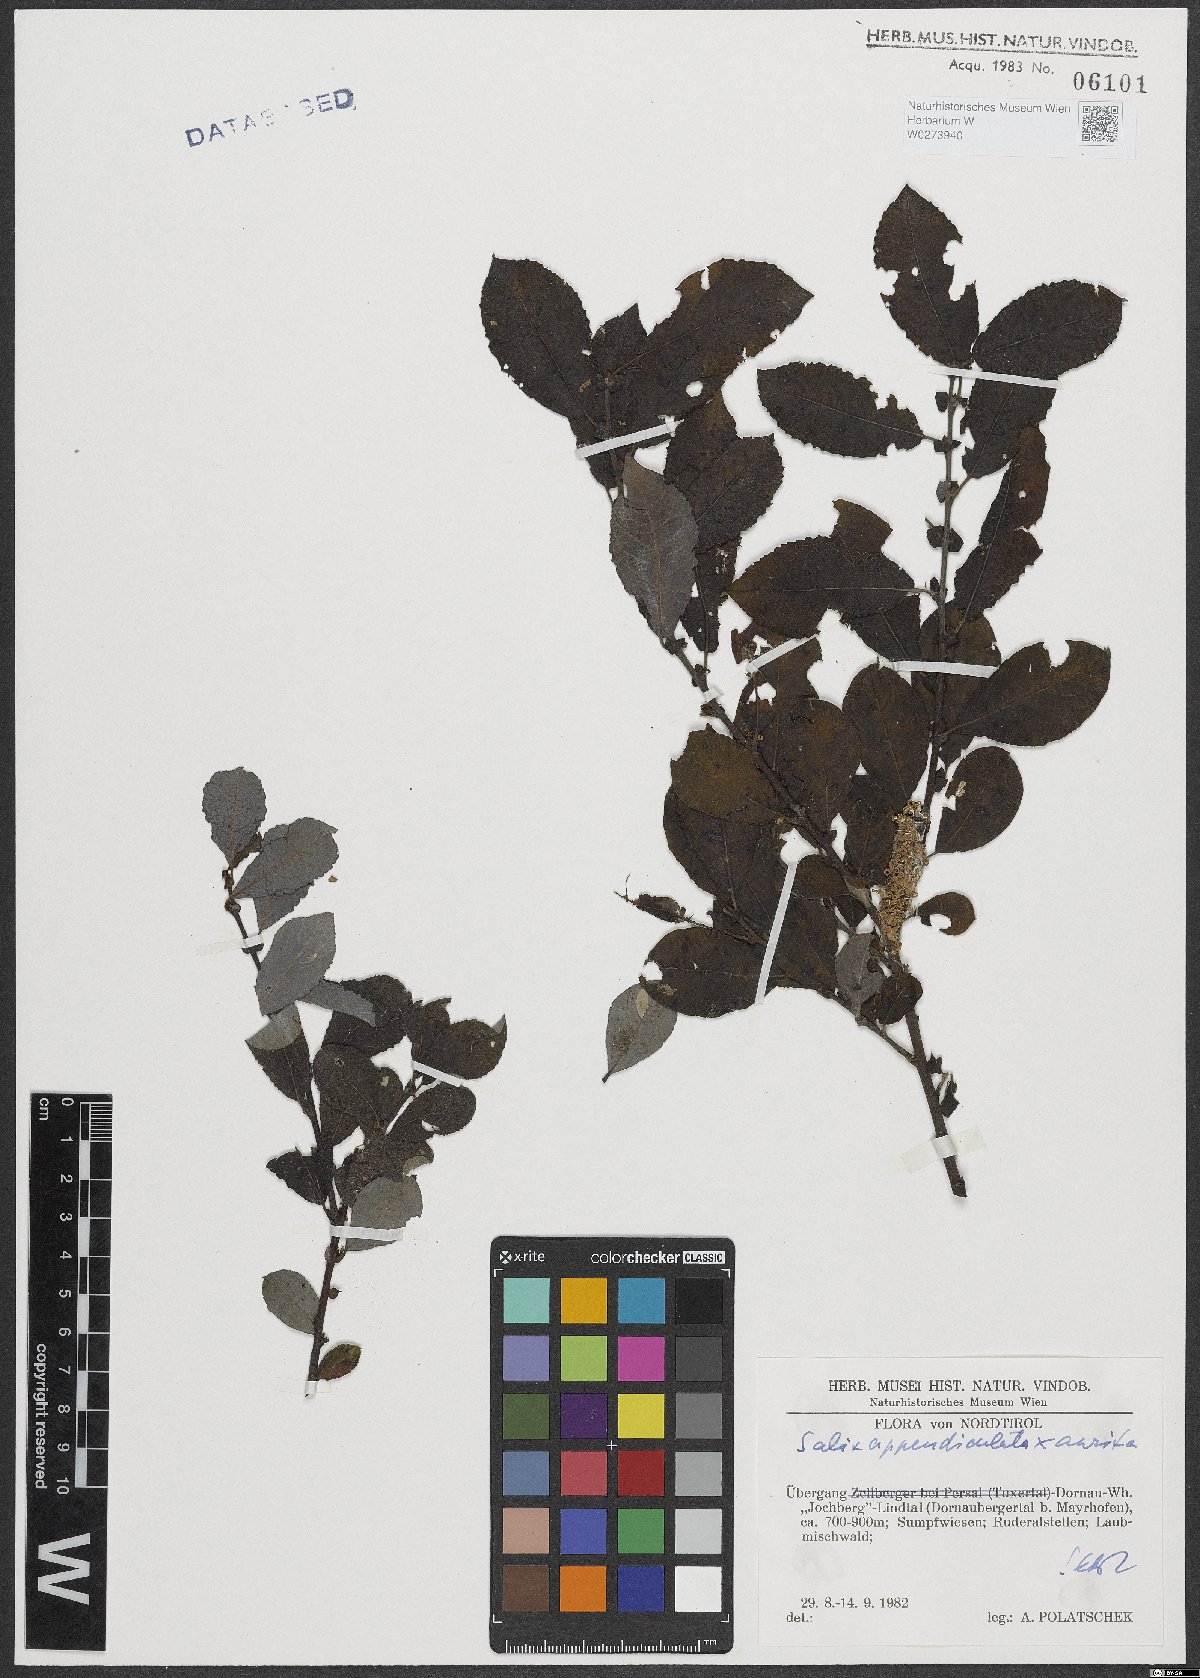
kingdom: Plantae
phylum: Tracheophyta
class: Magnoliopsida
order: Malpighiales
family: Salicaceae
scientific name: Salicaceae
